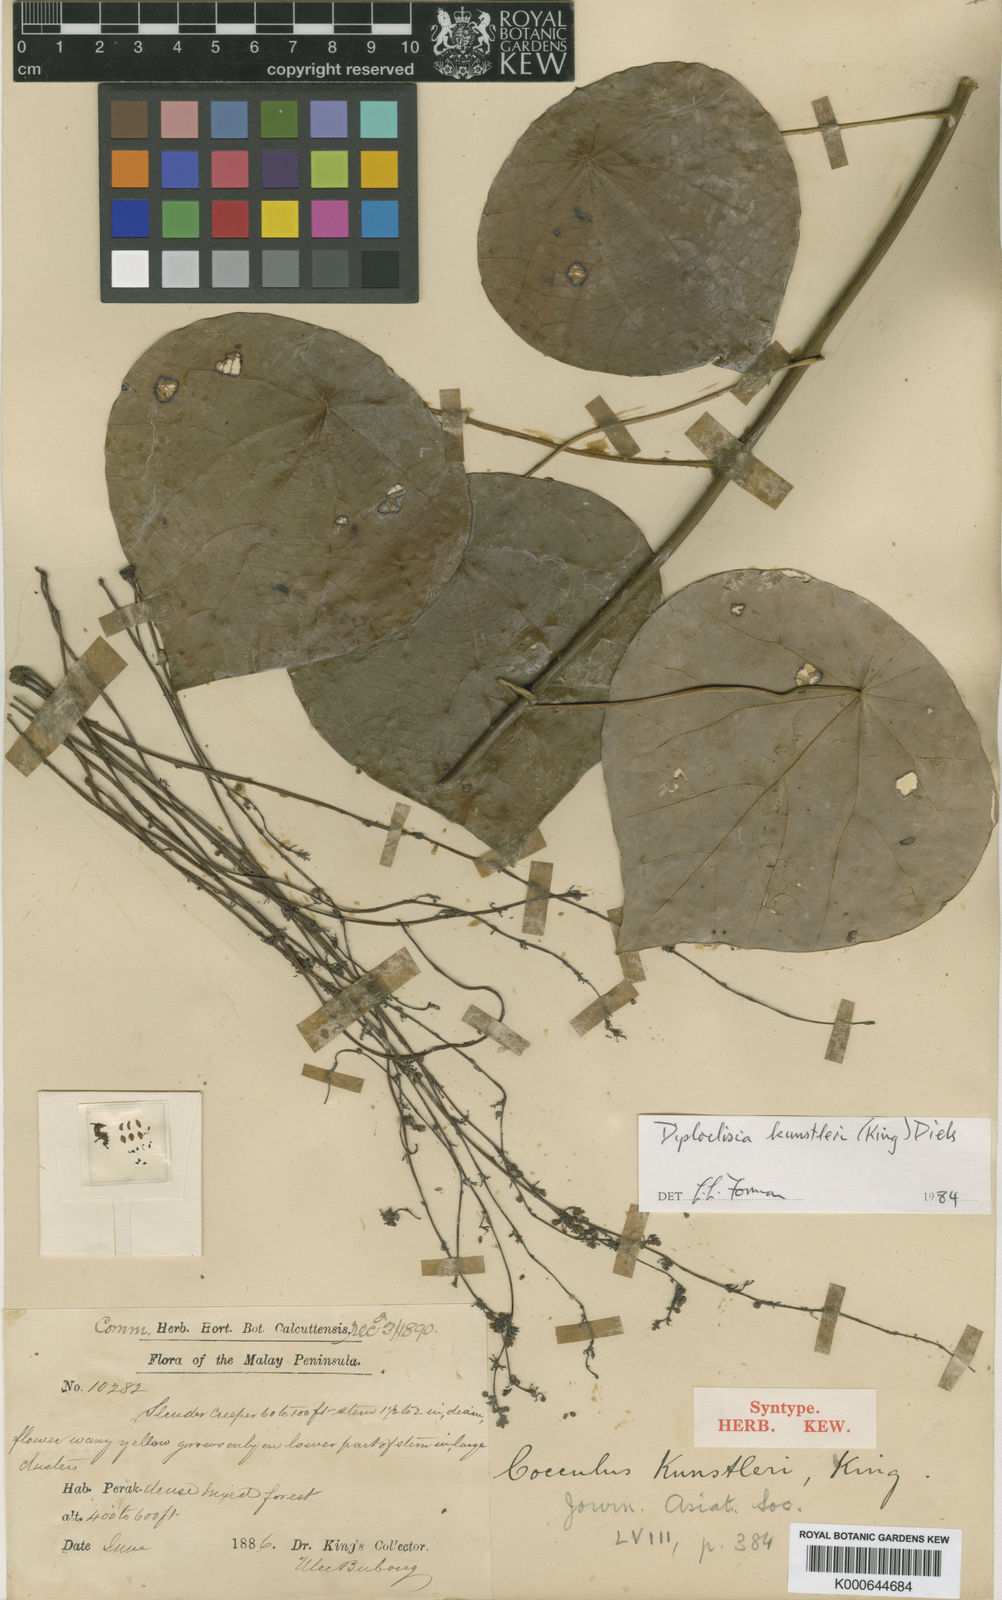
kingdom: Plantae
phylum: Tracheophyta
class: Magnoliopsida
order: Ranunculales
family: Menispermaceae
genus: Diploclisia
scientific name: Diploclisia glaucescens
